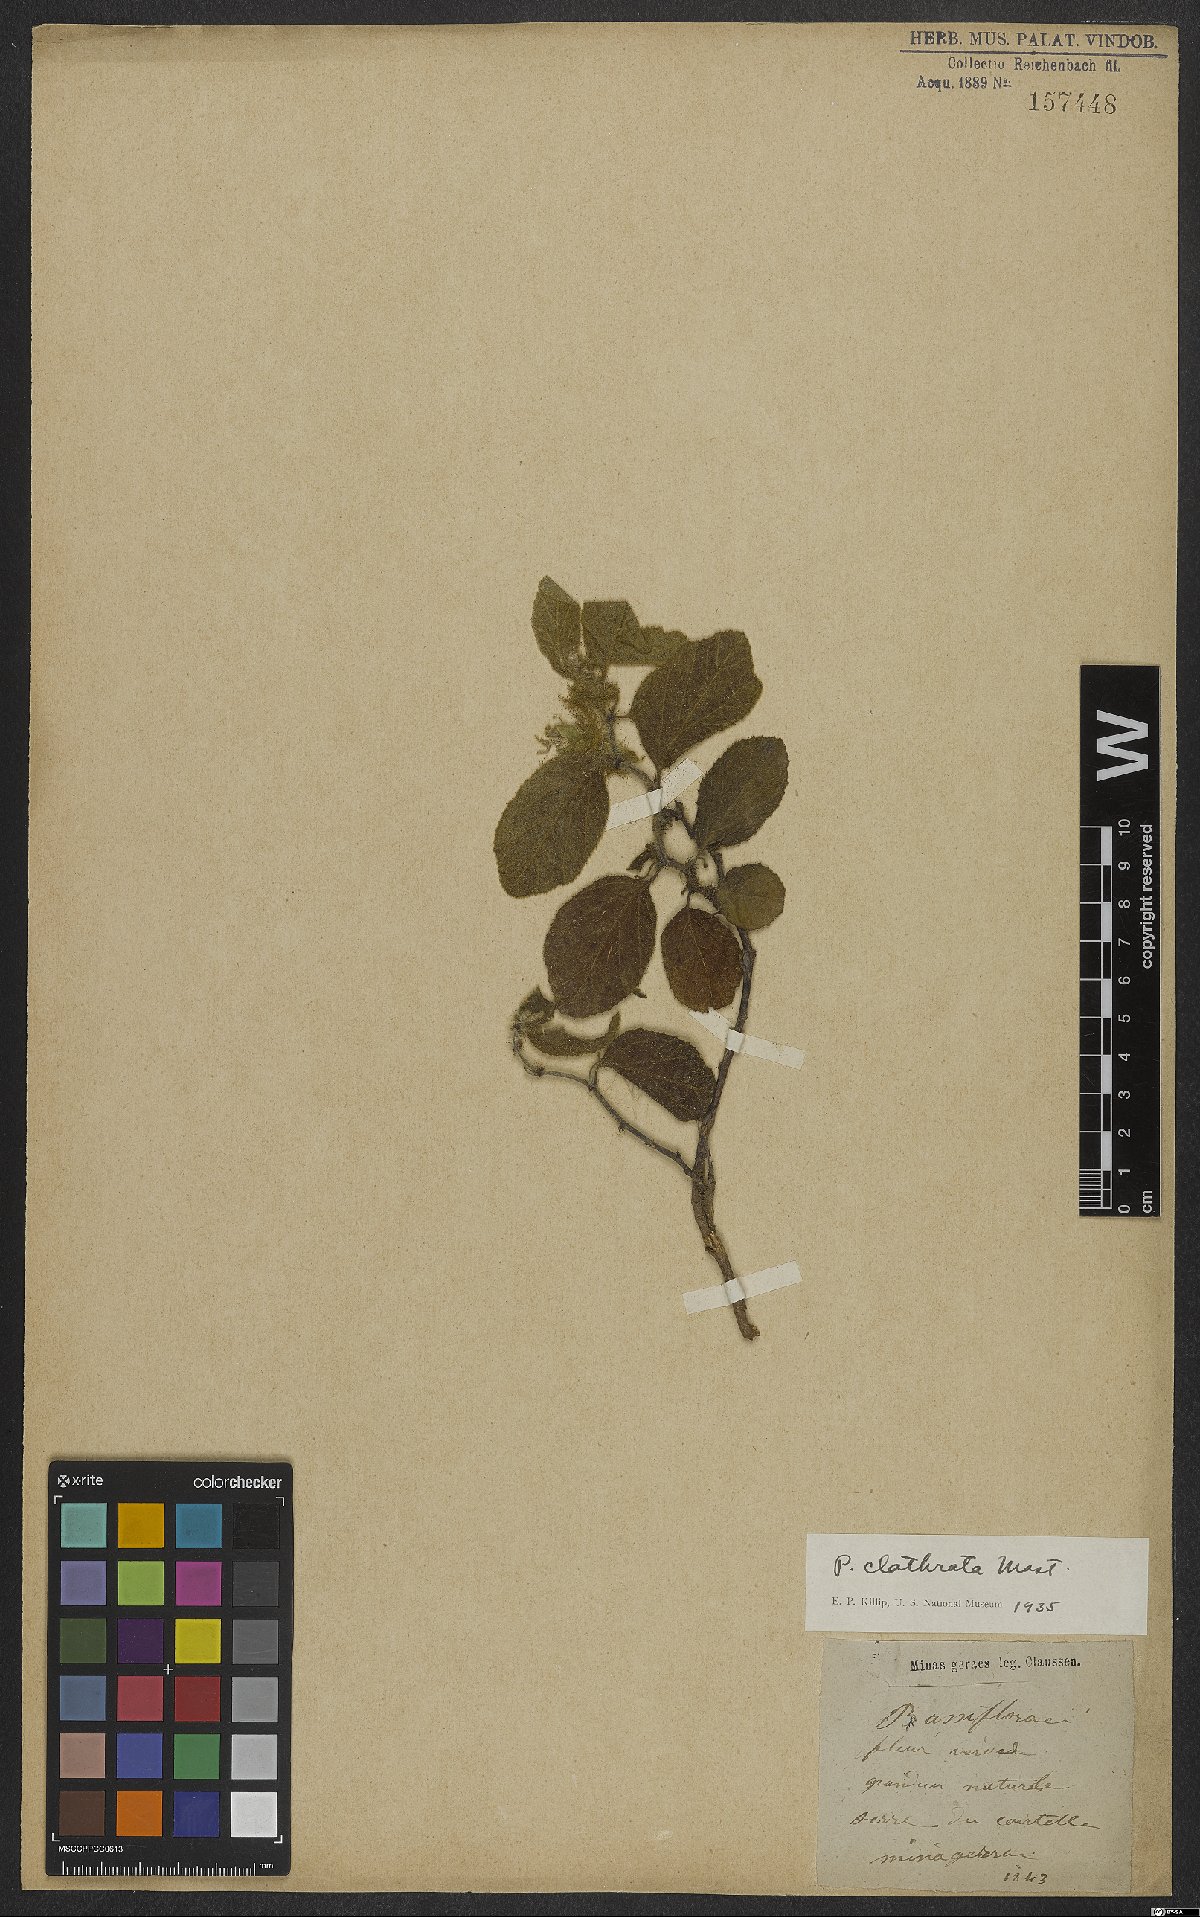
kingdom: Plantae
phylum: Tracheophyta
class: Magnoliopsida
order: Malpighiales
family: Passifloraceae
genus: Passiflora
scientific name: Passiflora clathrata
